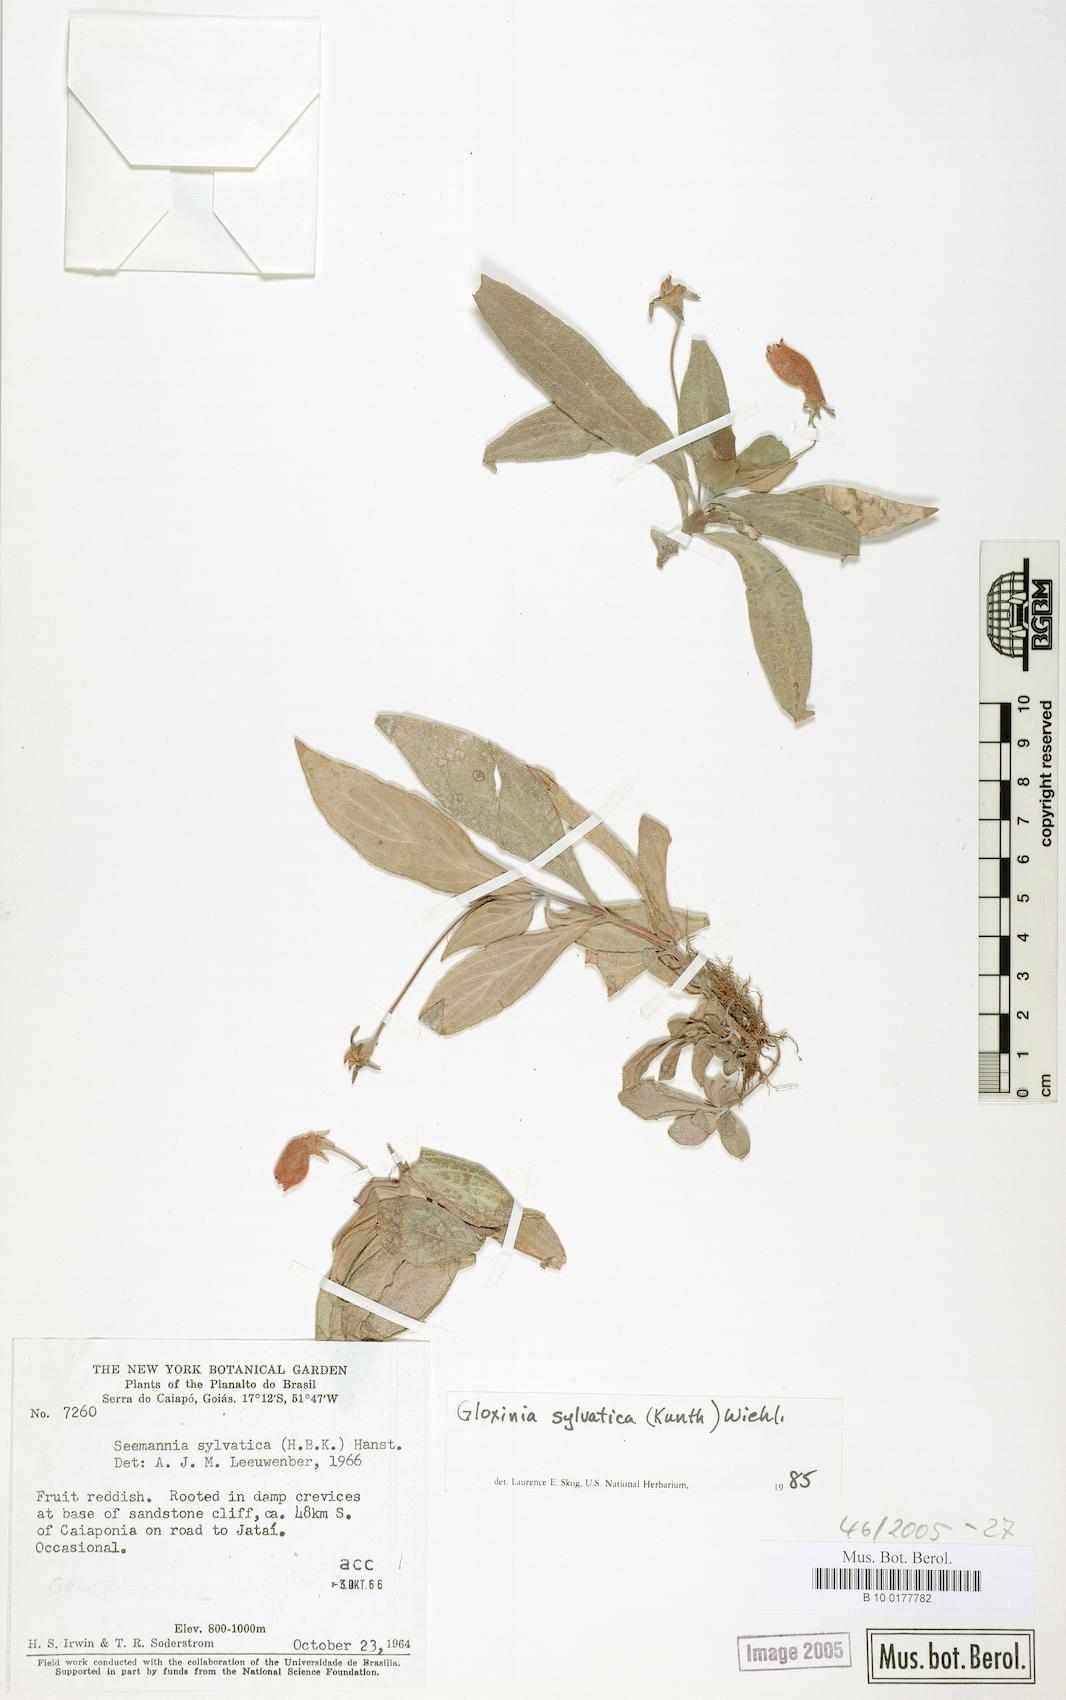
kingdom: Plantae
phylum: Tracheophyta
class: Magnoliopsida
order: Lamiales
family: Gesneriaceae
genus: Seemannia
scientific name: Seemannia sylvatica
